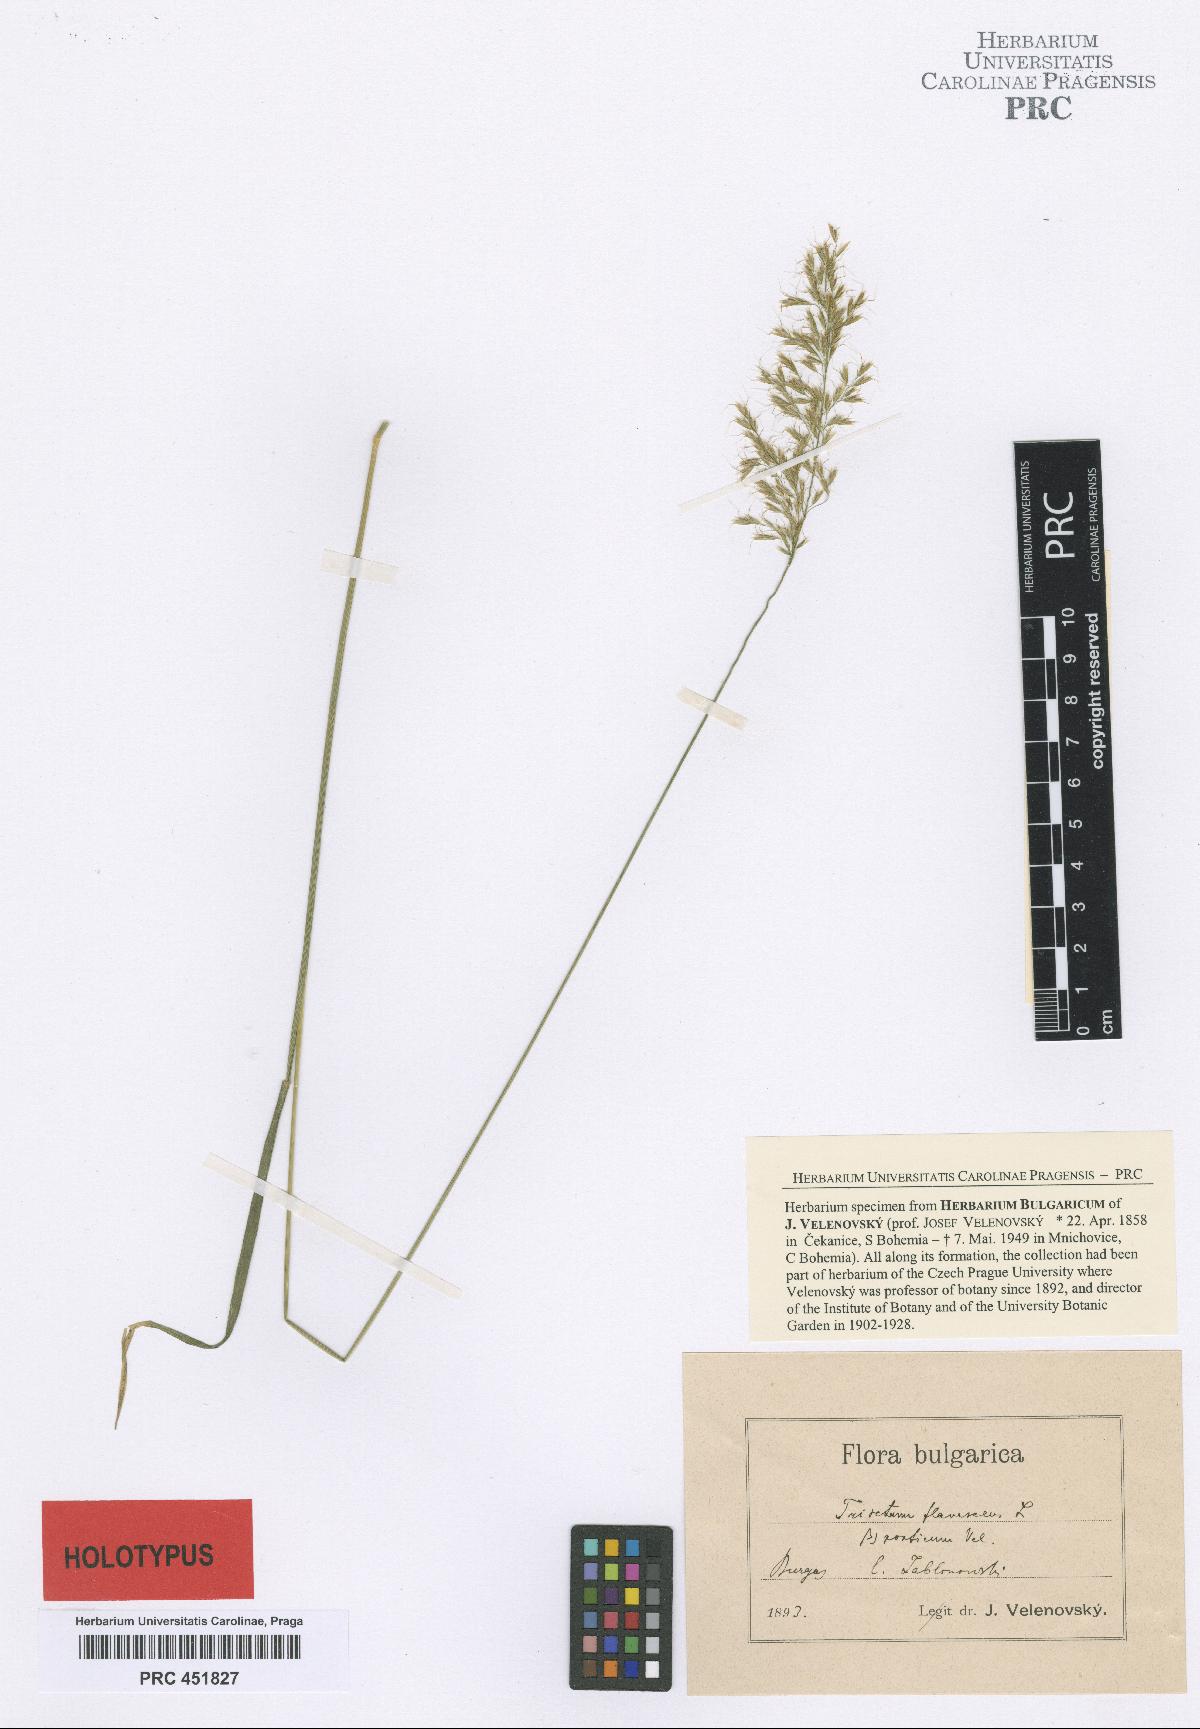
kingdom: Plantae
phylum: Tracheophyta
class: Liliopsida
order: Poales
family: Poaceae
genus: Trisetum
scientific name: Trisetum flavescens
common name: Yellow oat-grass
